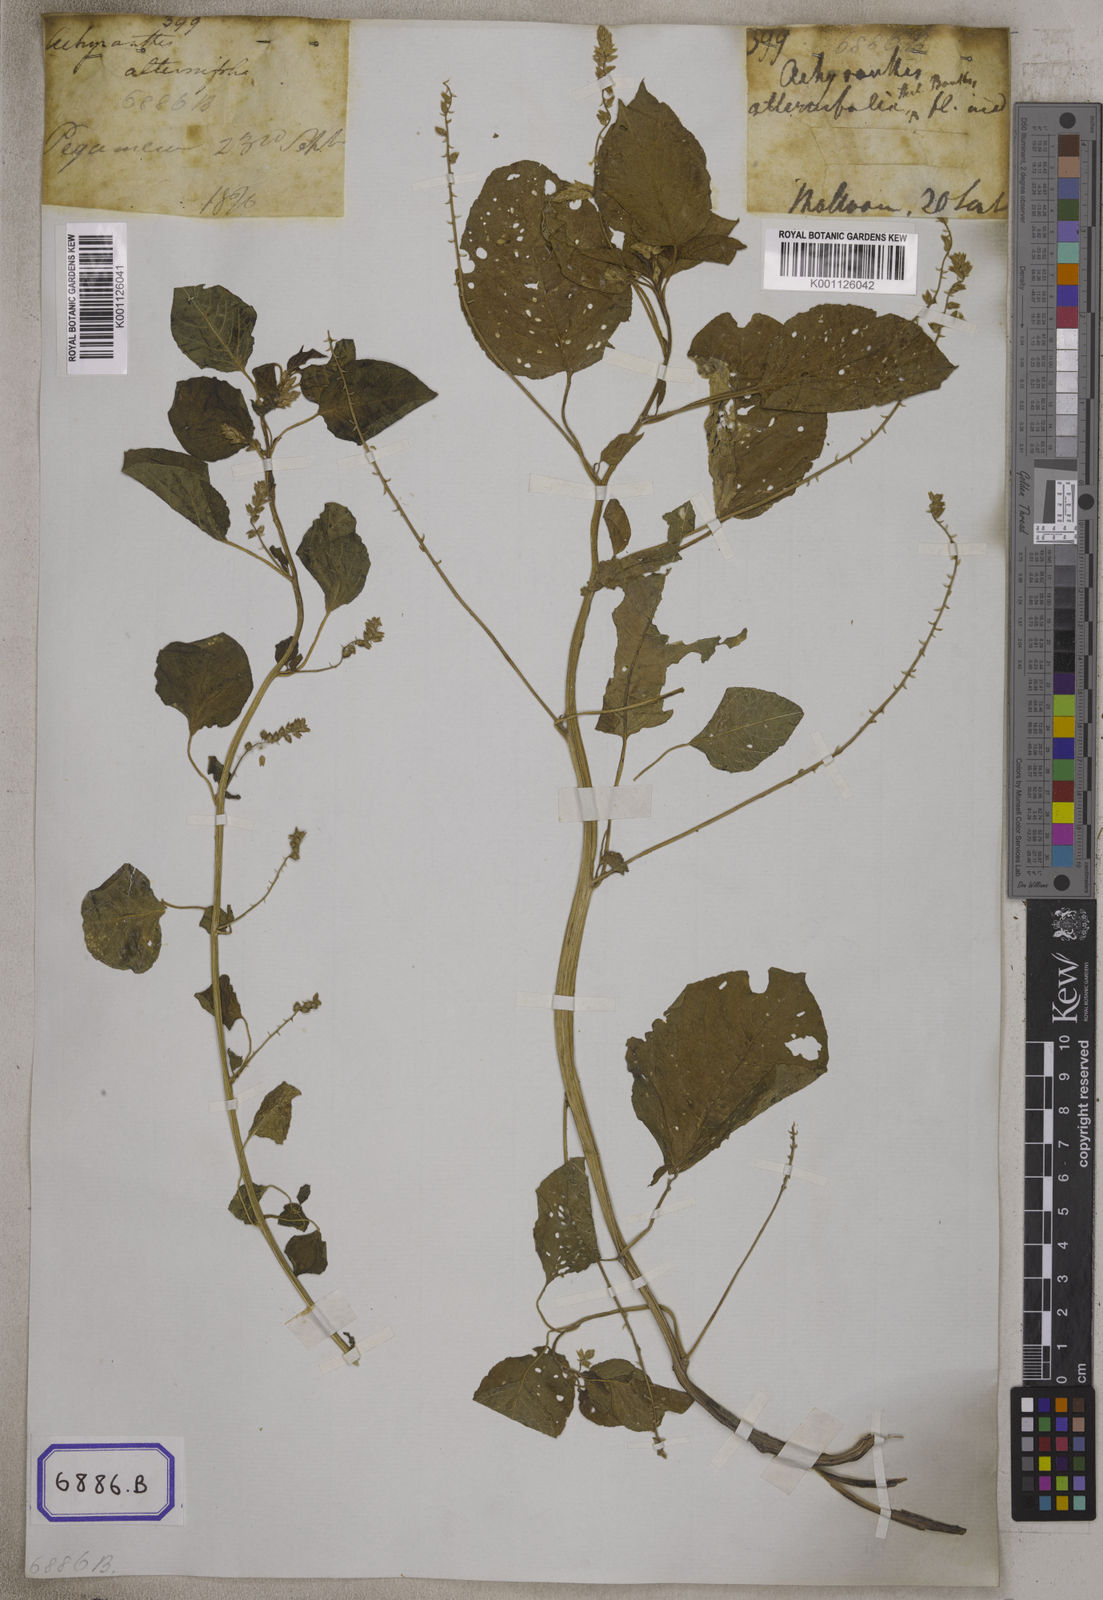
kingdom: Plantae
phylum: Tracheophyta
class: Magnoliopsida
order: Caryophyllales
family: Amaranthaceae
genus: Digera
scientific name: Digera muricata
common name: False amaranth
